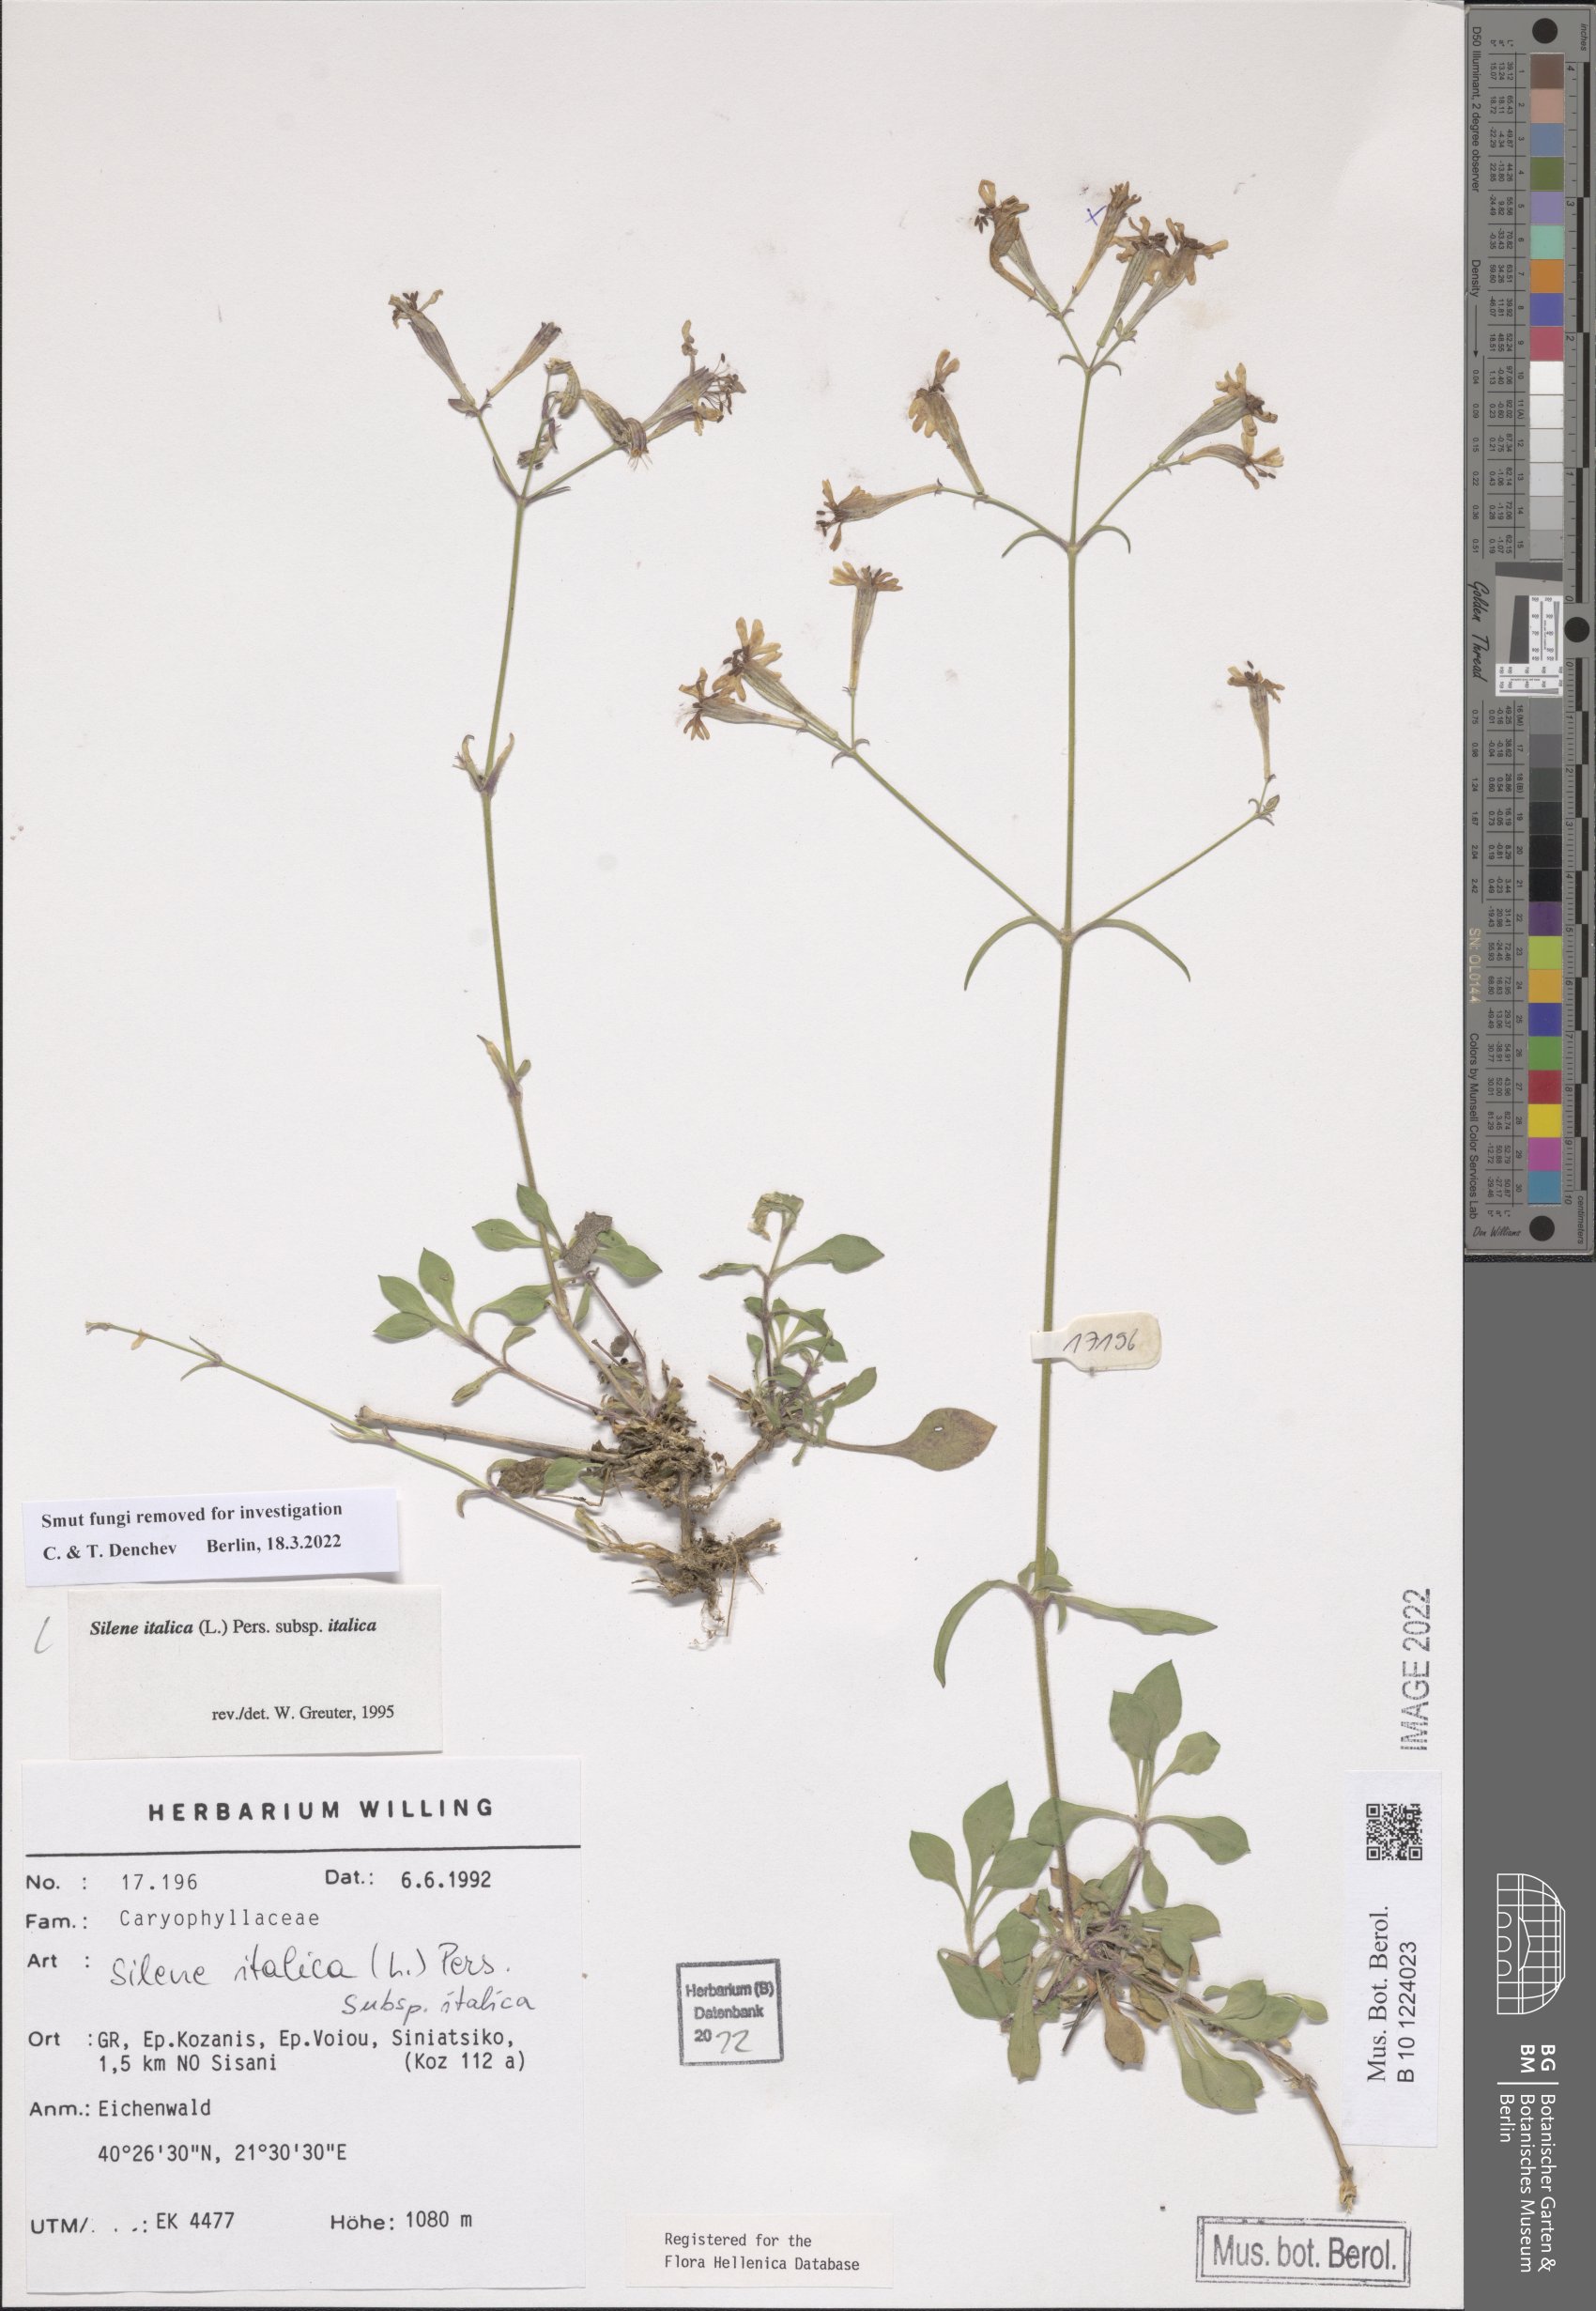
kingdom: Plantae
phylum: Tracheophyta
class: Magnoliopsida
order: Caryophyllales
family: Caryophyllaceae
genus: Silene
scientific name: Silene italica
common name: Italian catchfly
